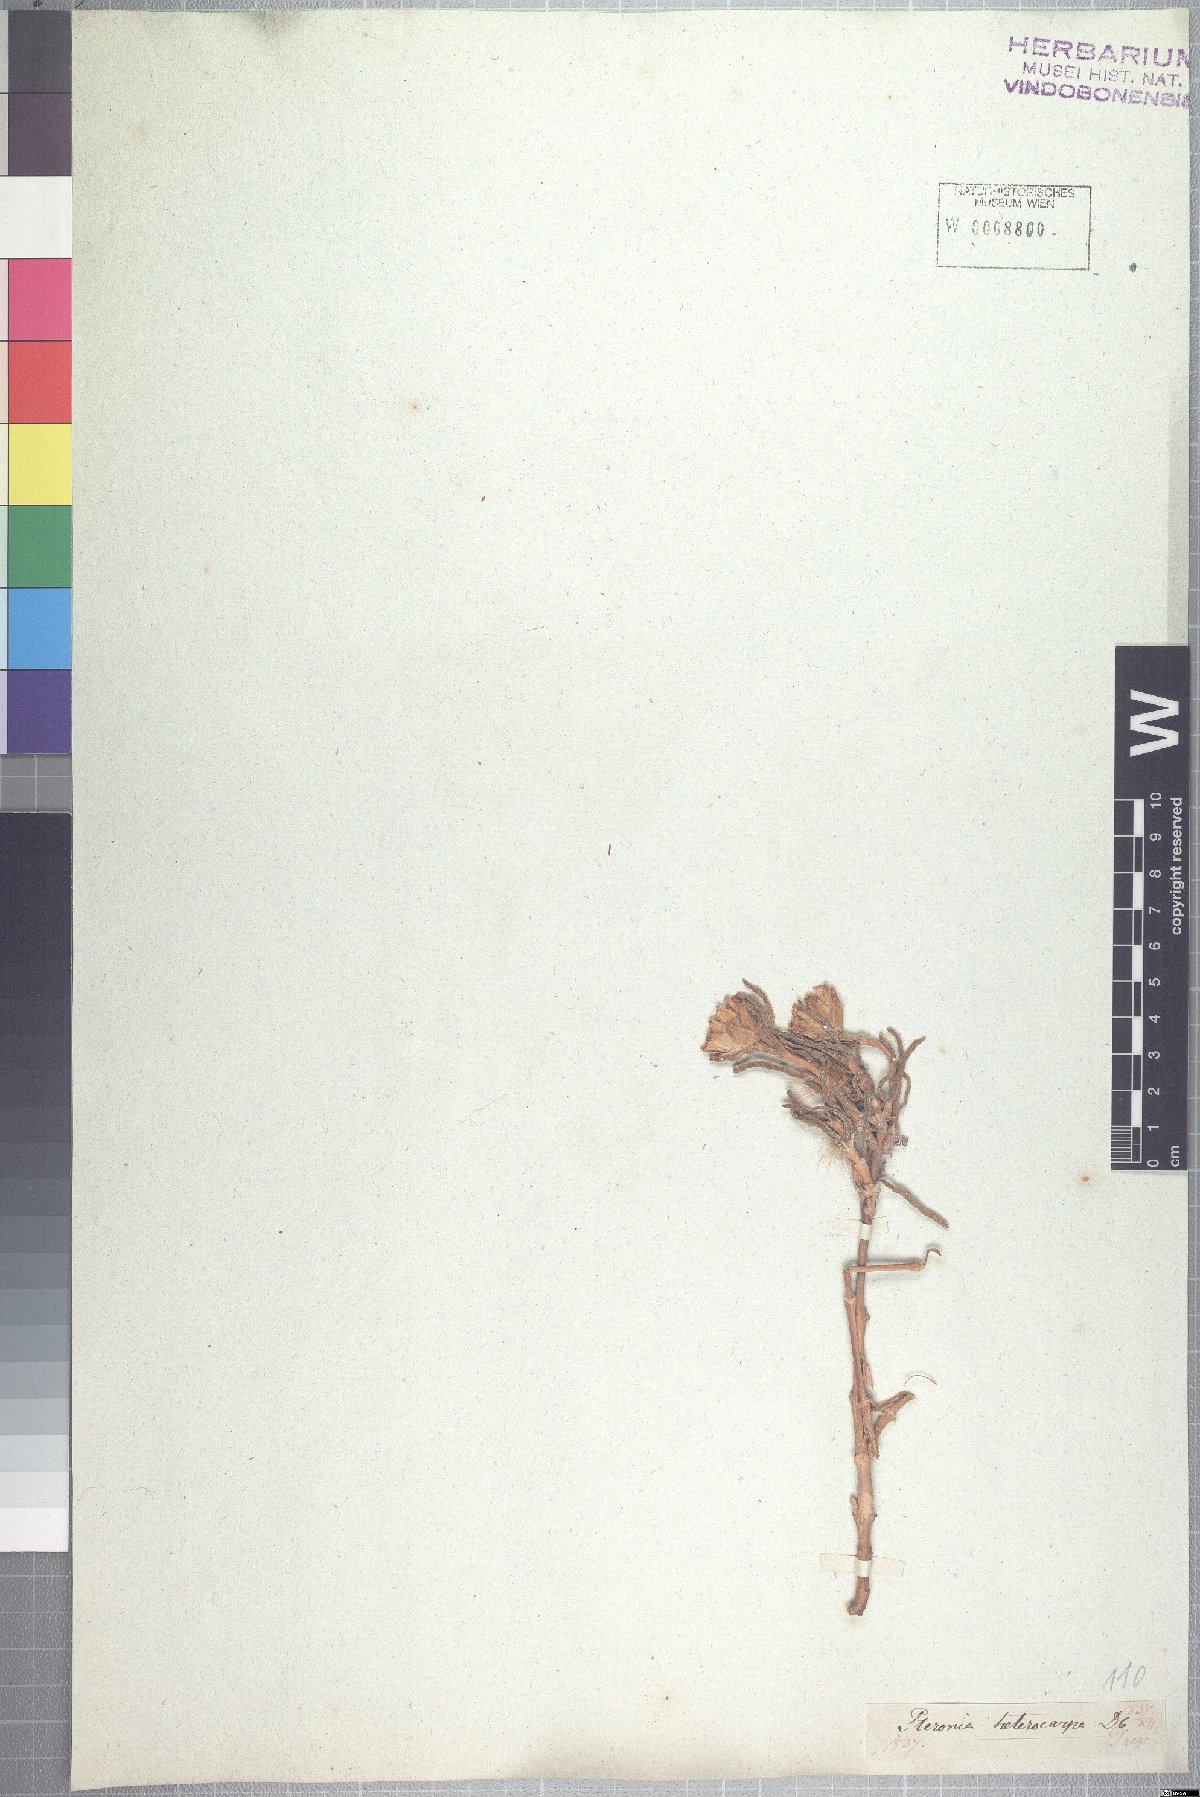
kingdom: Plantae
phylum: Tracheophyta
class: Magnoliopsida
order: Asterales
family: Asteraceae
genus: Pteronia
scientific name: Pteronia heterocarpa
